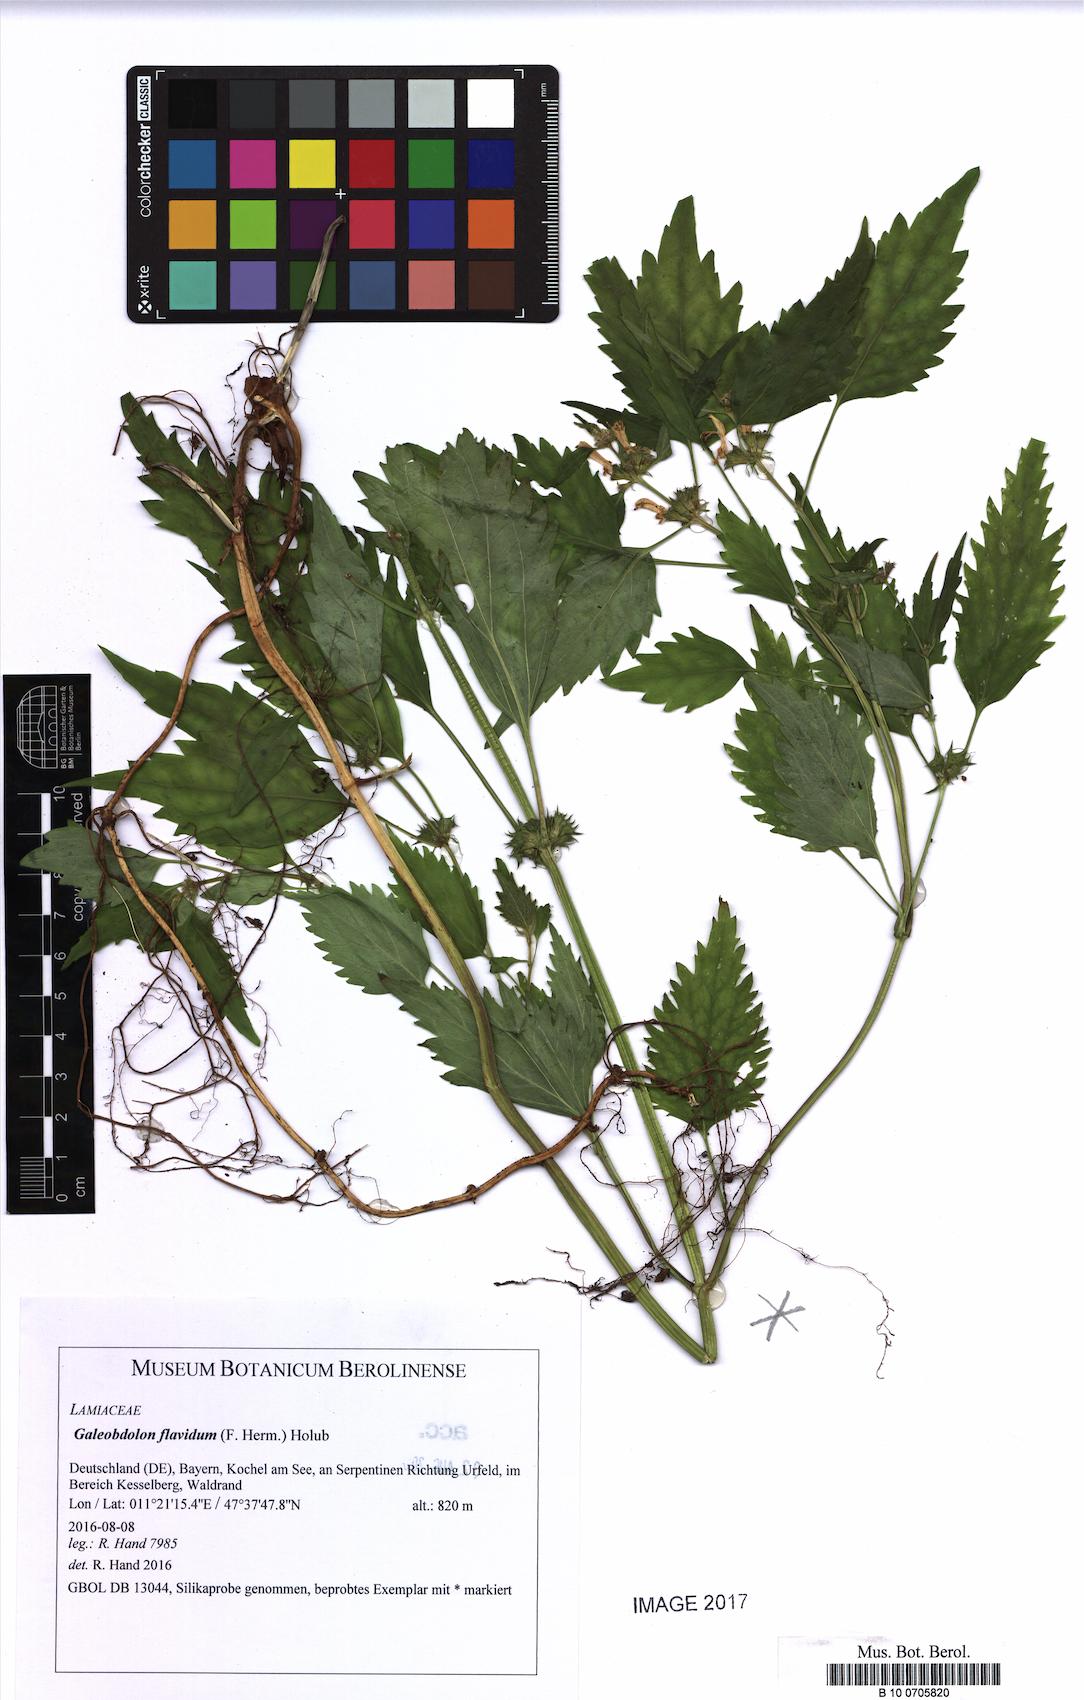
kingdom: Plantae
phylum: Tracheophyta
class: Magnoliopsida
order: Lamiales
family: Lamiaceae
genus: Lamium
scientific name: Lamium galeobdolon
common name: Yellow archangel
